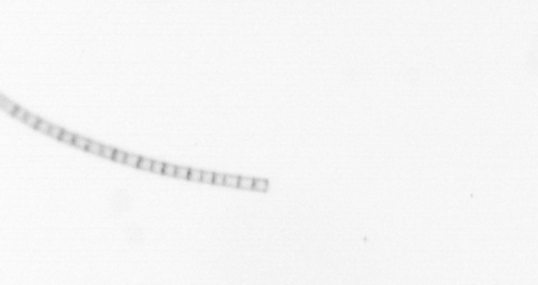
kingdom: Chromista
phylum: Ochrophyta
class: Bacillariophyceae
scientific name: Bacillariophyceae
